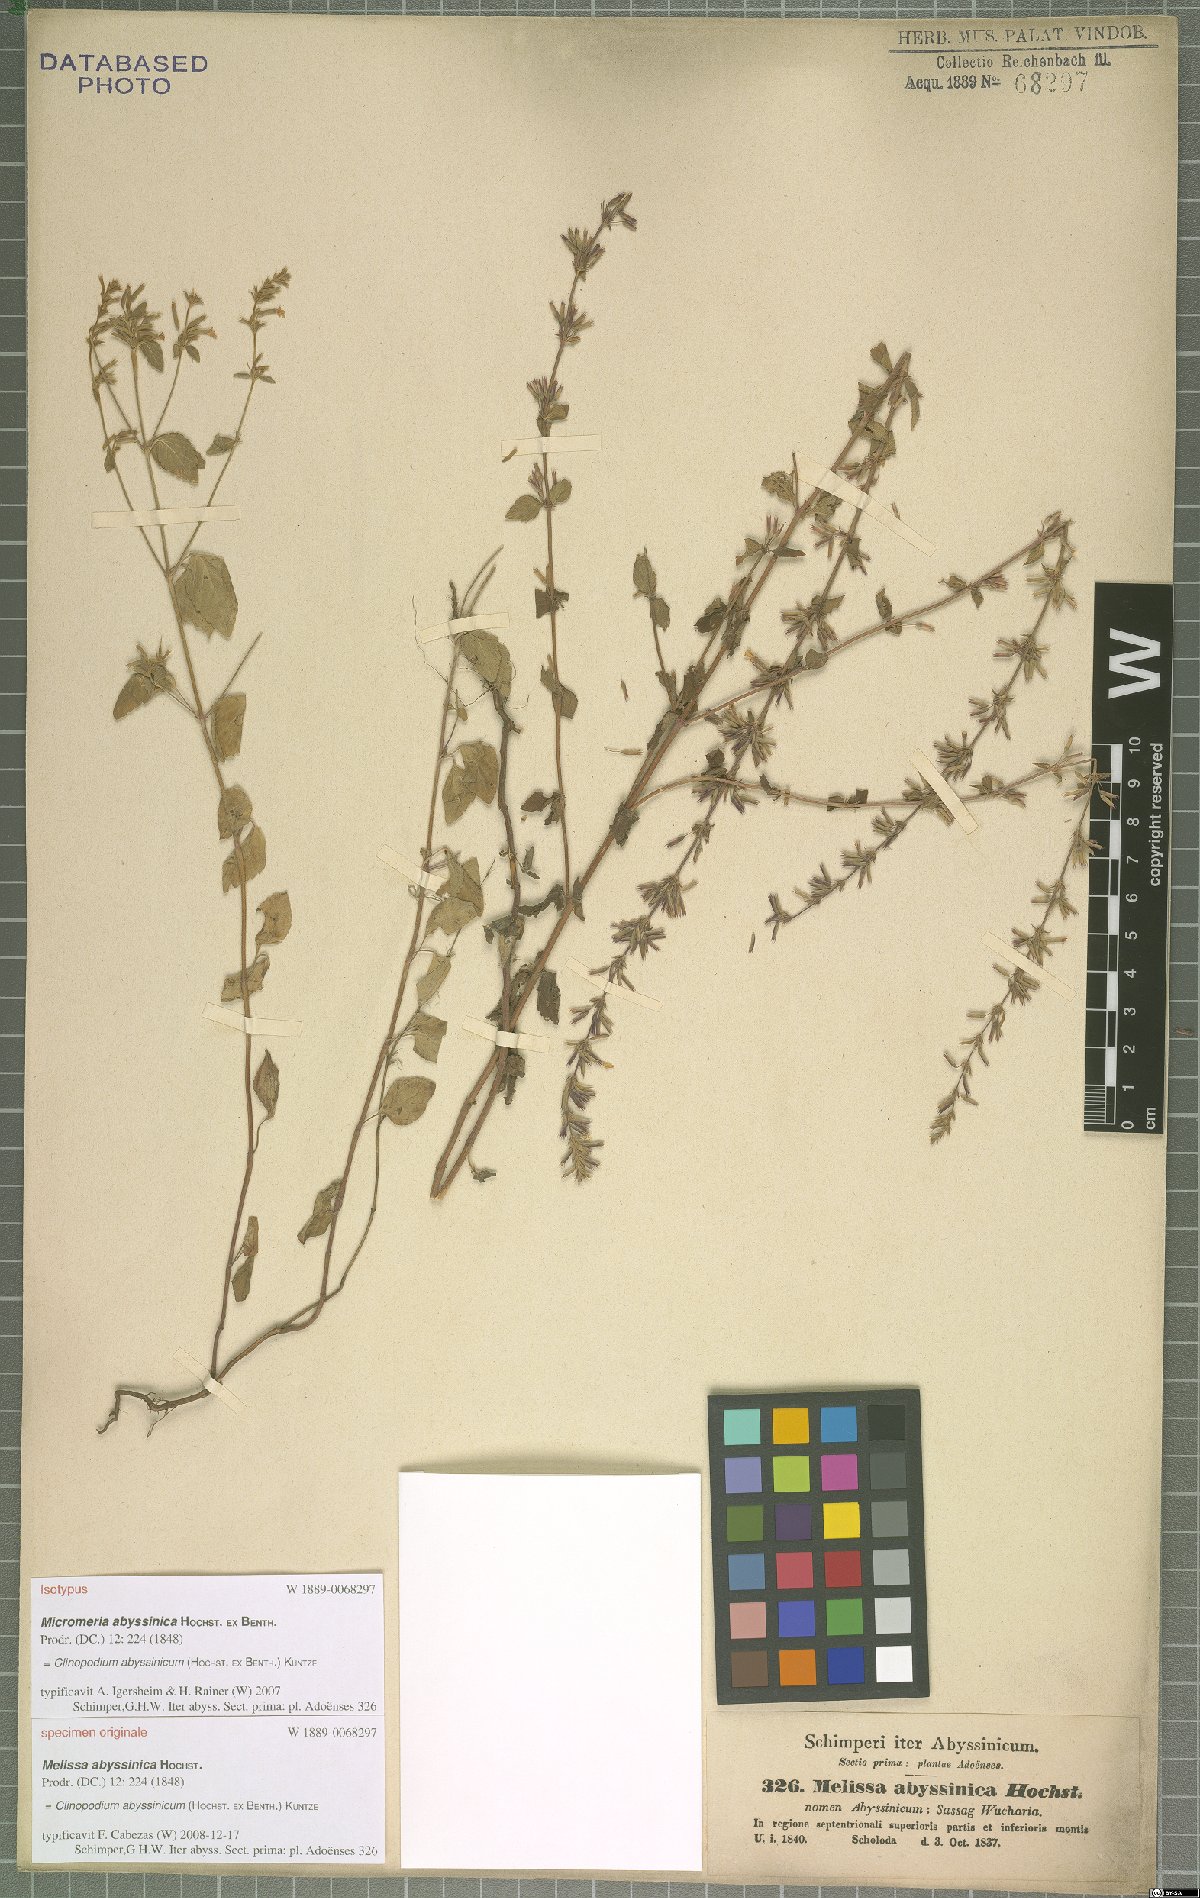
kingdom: Plantae
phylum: Tracheophyta
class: Magnoliopsida
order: Lamiales
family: Lamiaceae
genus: Clinopodium
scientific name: Clinopodium abyssinicum
